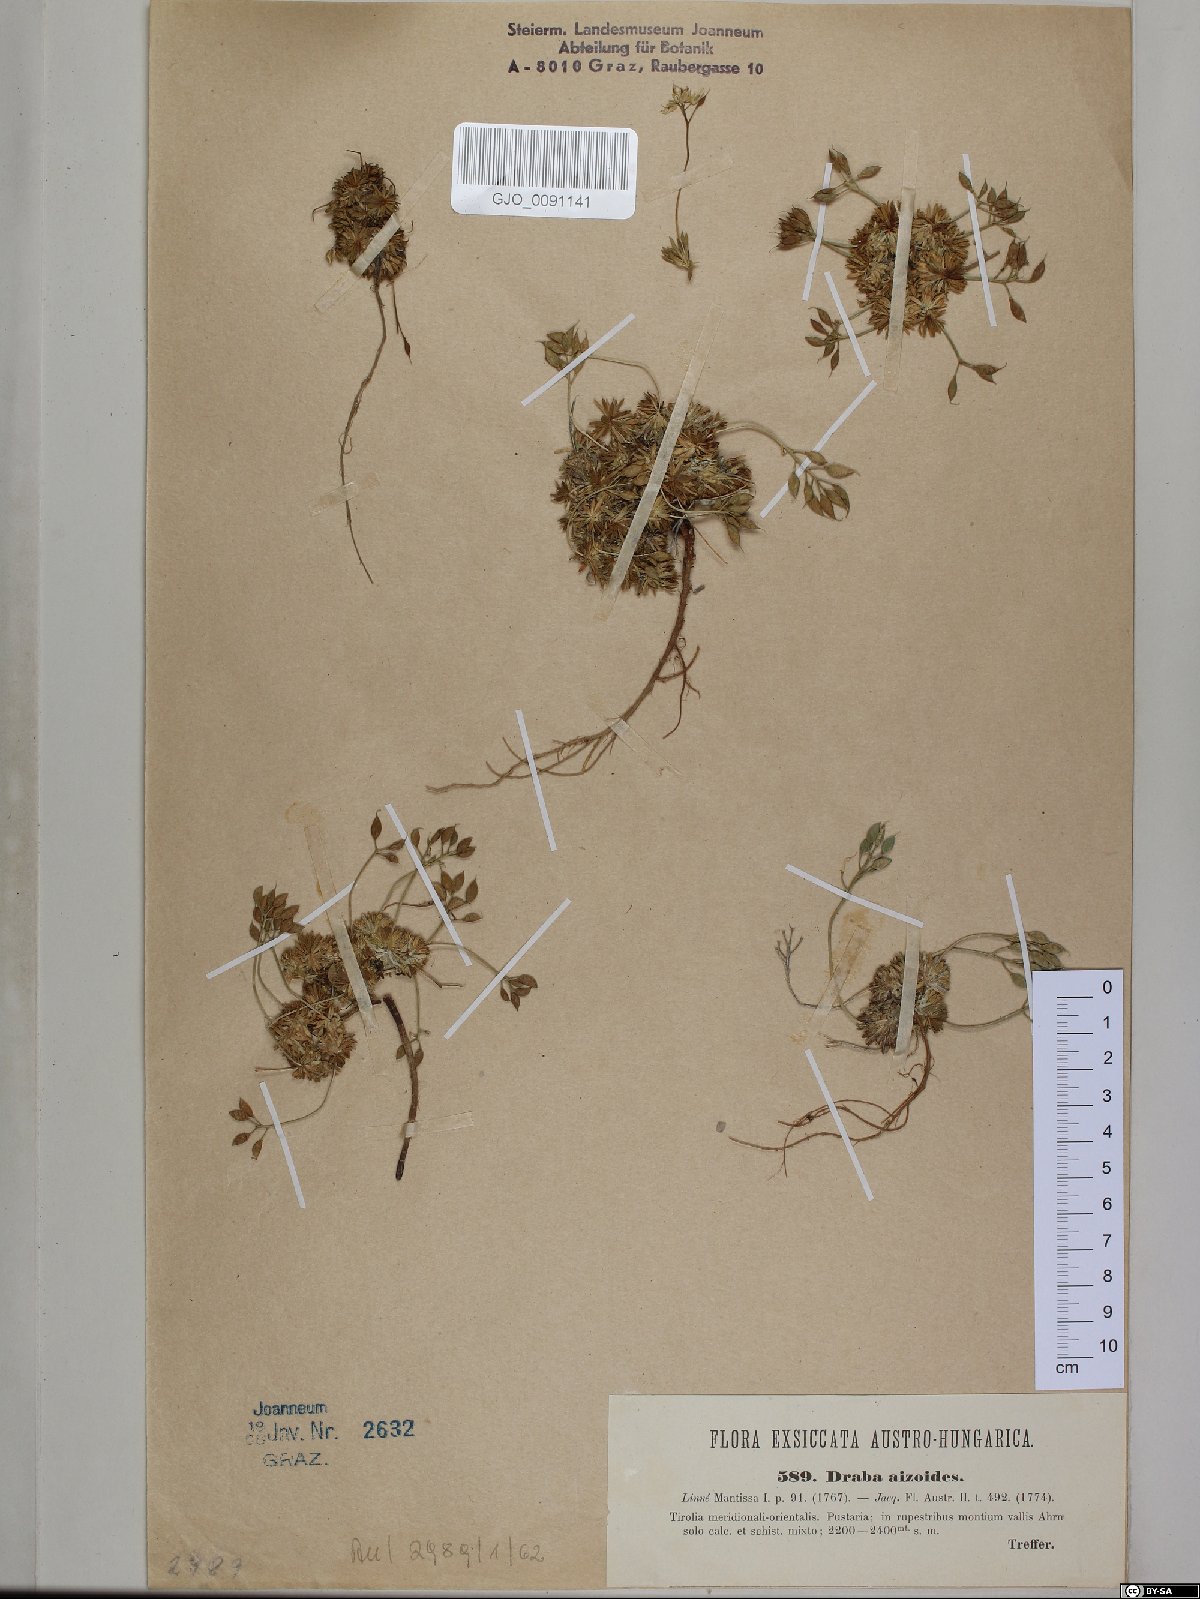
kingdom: Plantae
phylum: Tracheophyta
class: Magnoliopsida
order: Brassicales
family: Brassicaceae
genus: Draba
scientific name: Draba aizoides
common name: Yellow whitlowgrass
